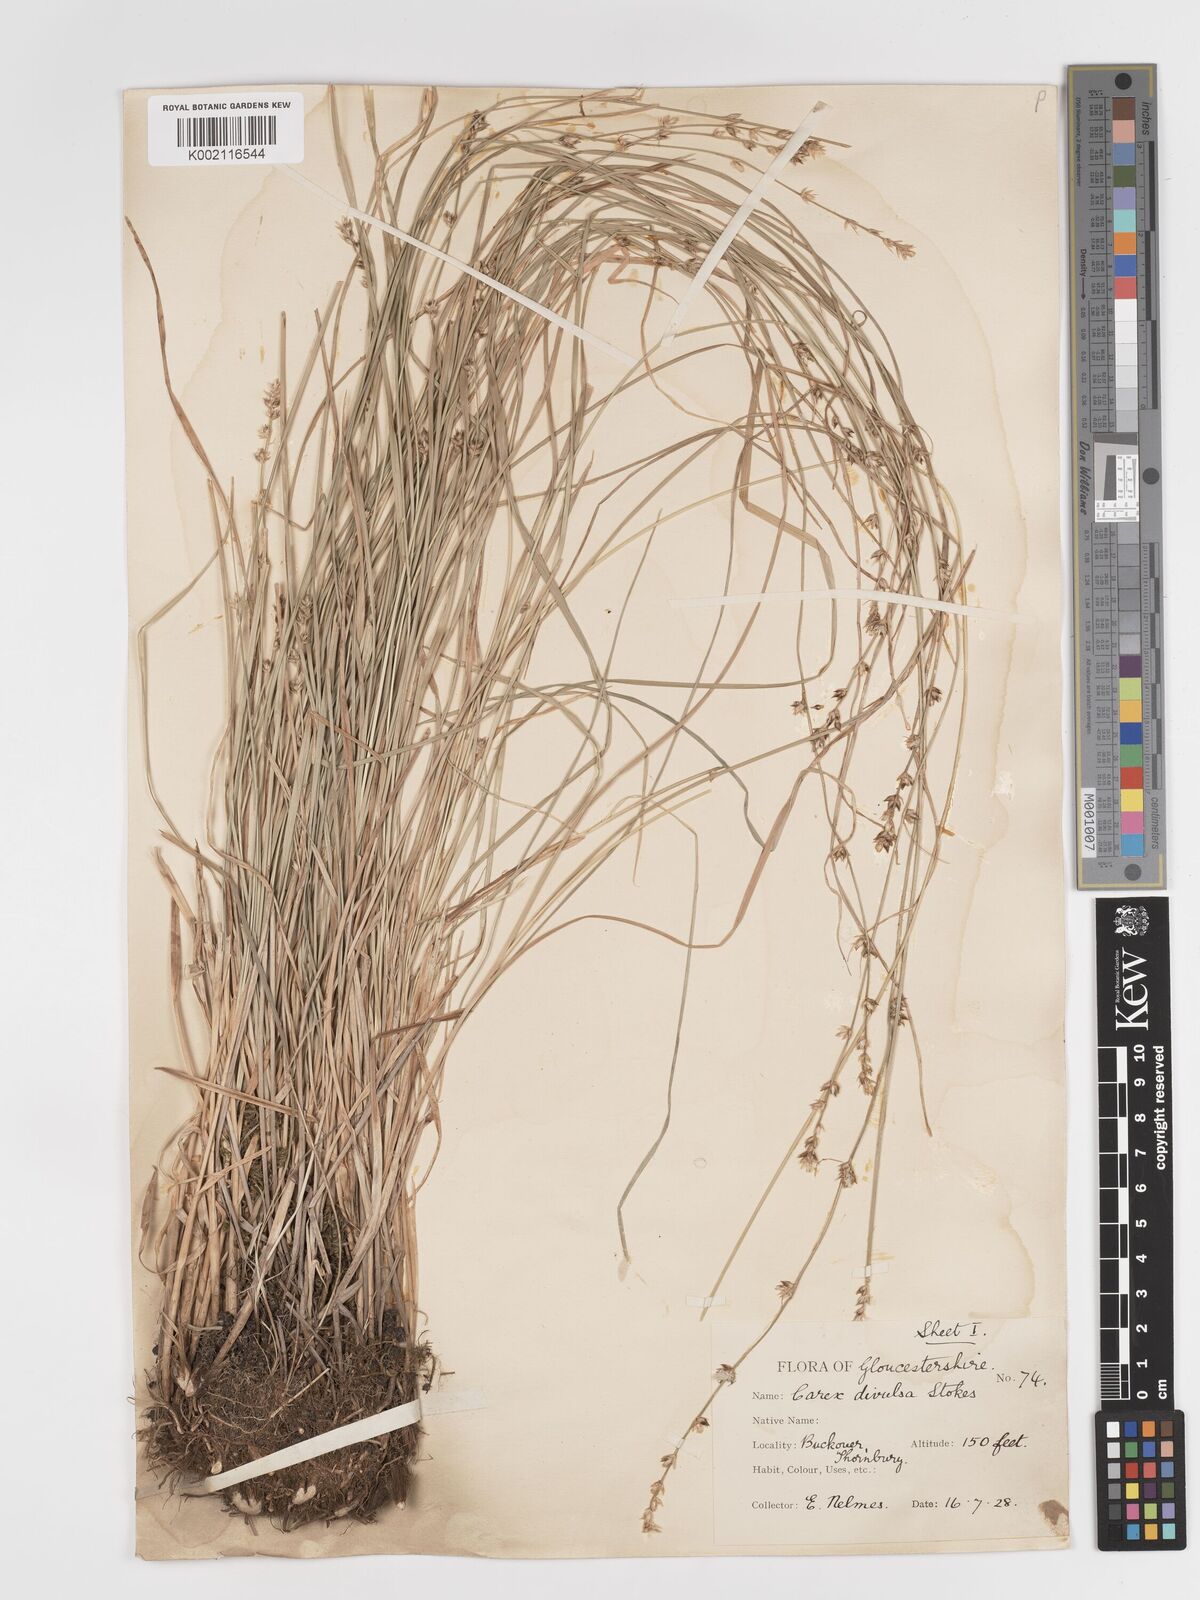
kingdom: Plantae
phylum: Tracheophyta
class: Liliopsida
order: Poales
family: Cyperaceae
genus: Carex
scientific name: Carex divulsa
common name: Grassland sedge
